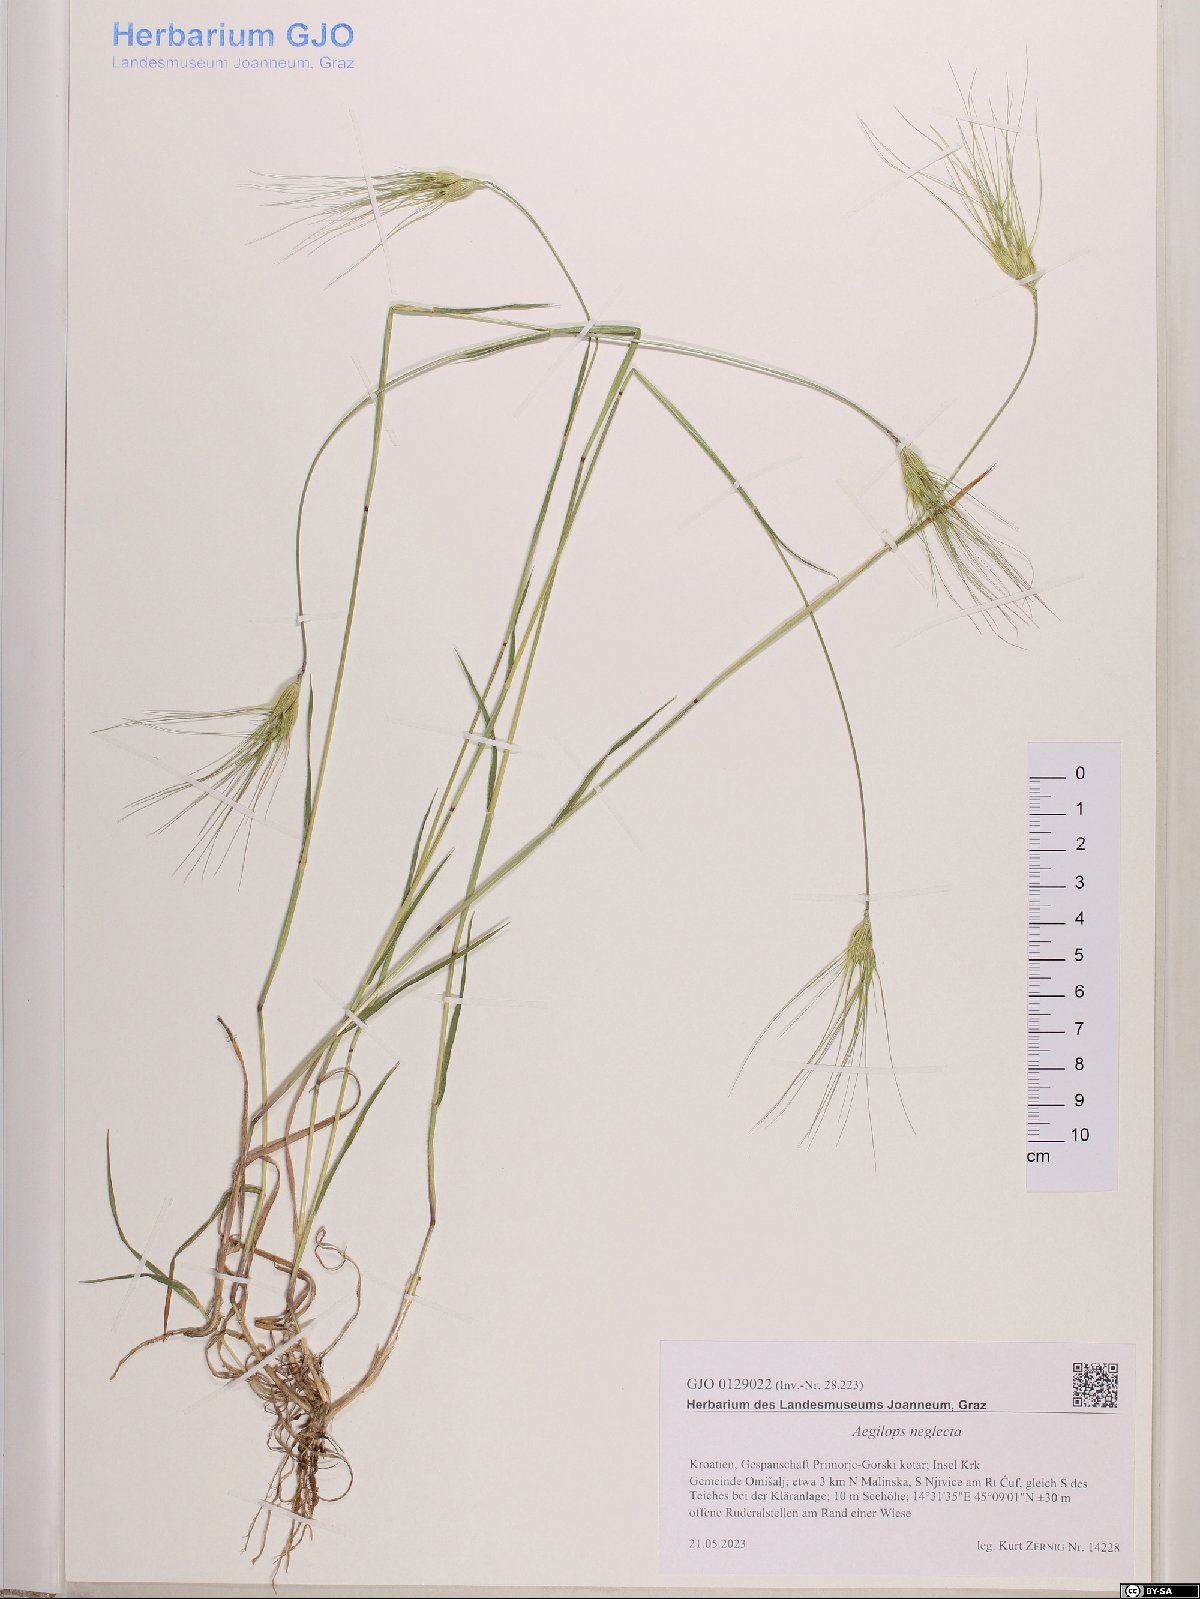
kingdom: Plantae
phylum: Tracheophyta
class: Liliopsida
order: Poales
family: Poaceae
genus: Aegilops
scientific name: Aegilops neglecta
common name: Three-awn goat grass
